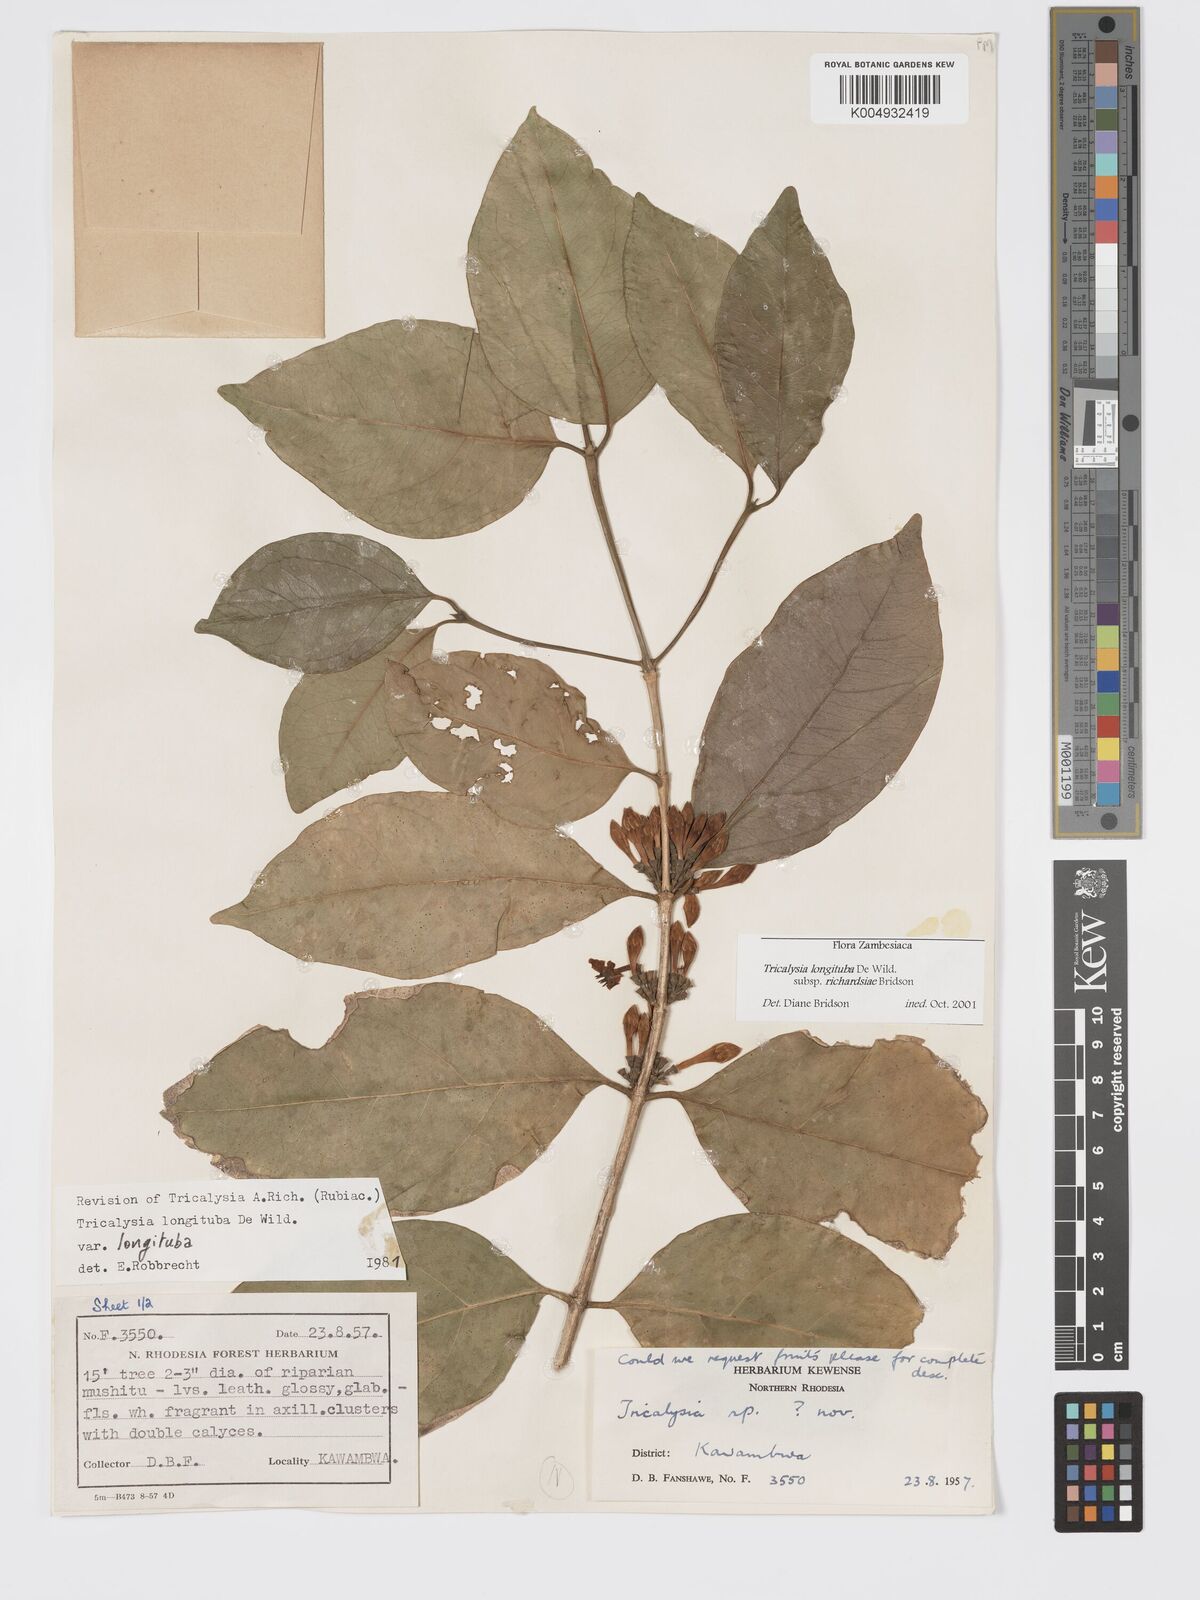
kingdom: Plantae
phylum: Tracheophyta
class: Magnoliopsida
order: Gentianales
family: Rubiaceae
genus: Tricalysia
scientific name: Tricalysia longituba
